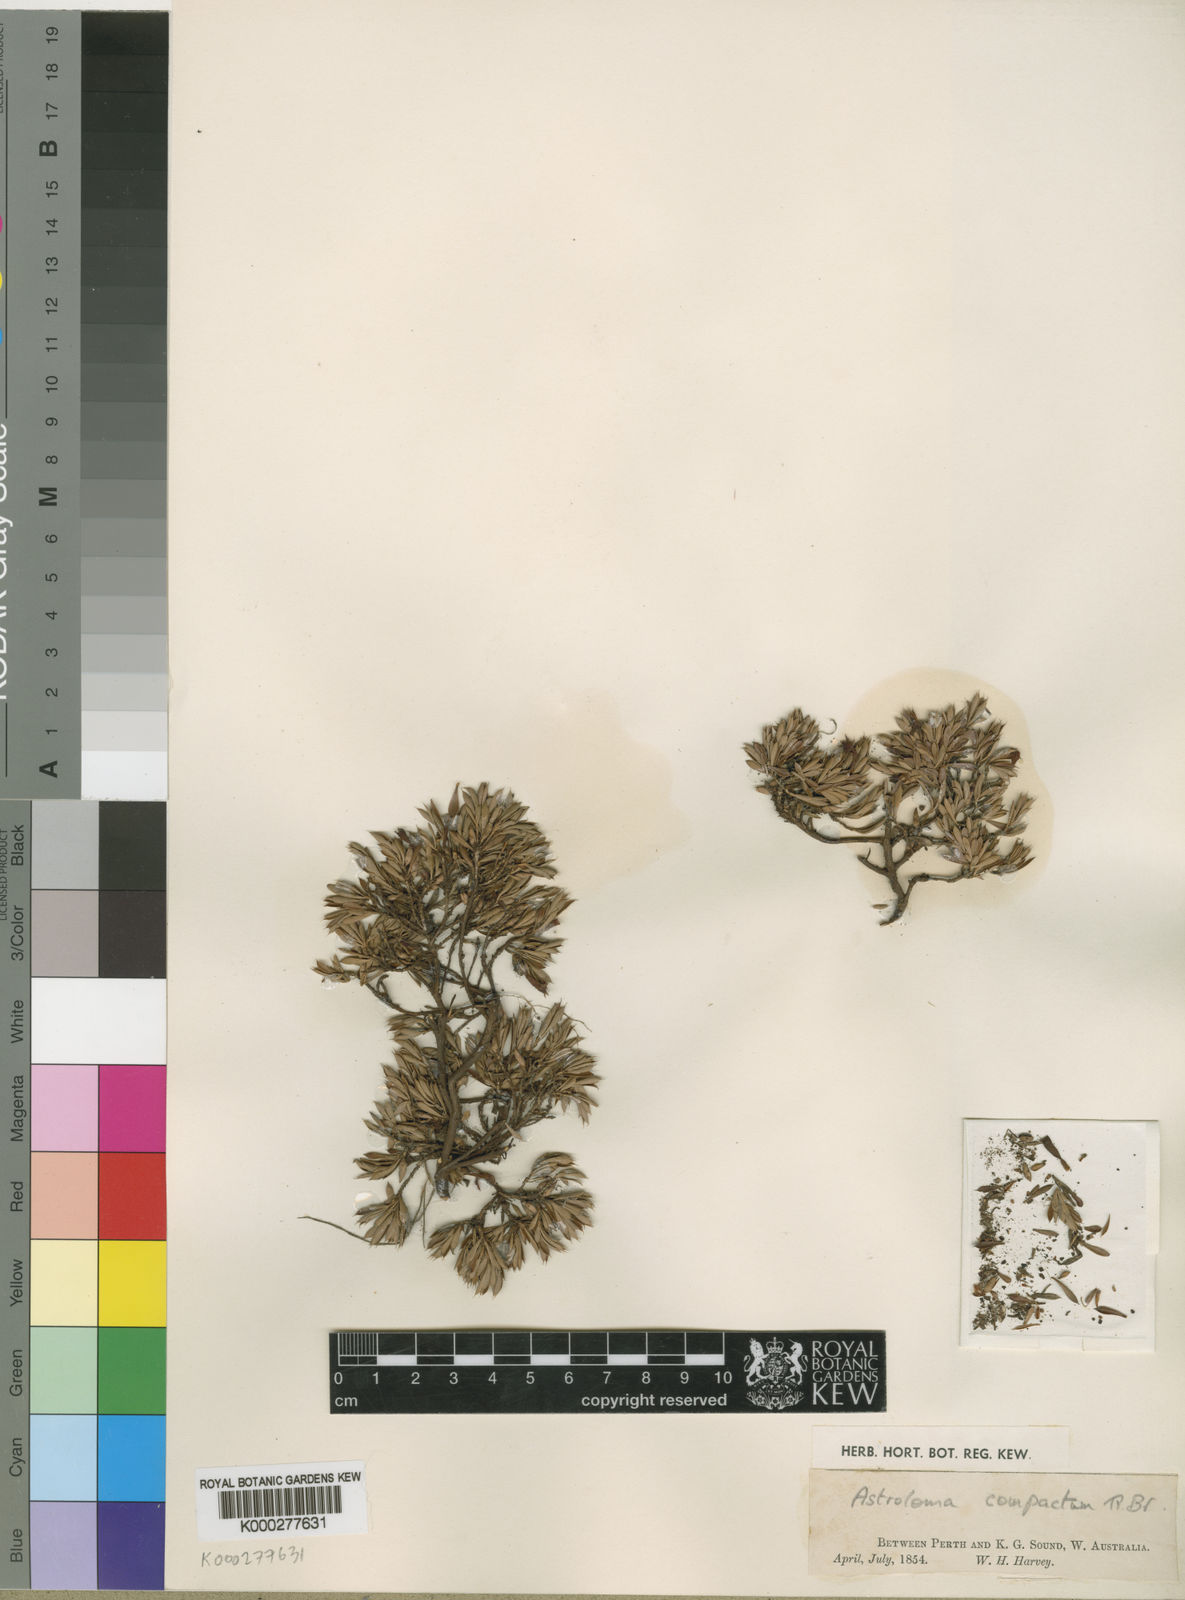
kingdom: Plantae
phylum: Tracheophyta
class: Magnoliopsida
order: Ericales
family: Ericaceae
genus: Styphelia
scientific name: Styphelia compacta
